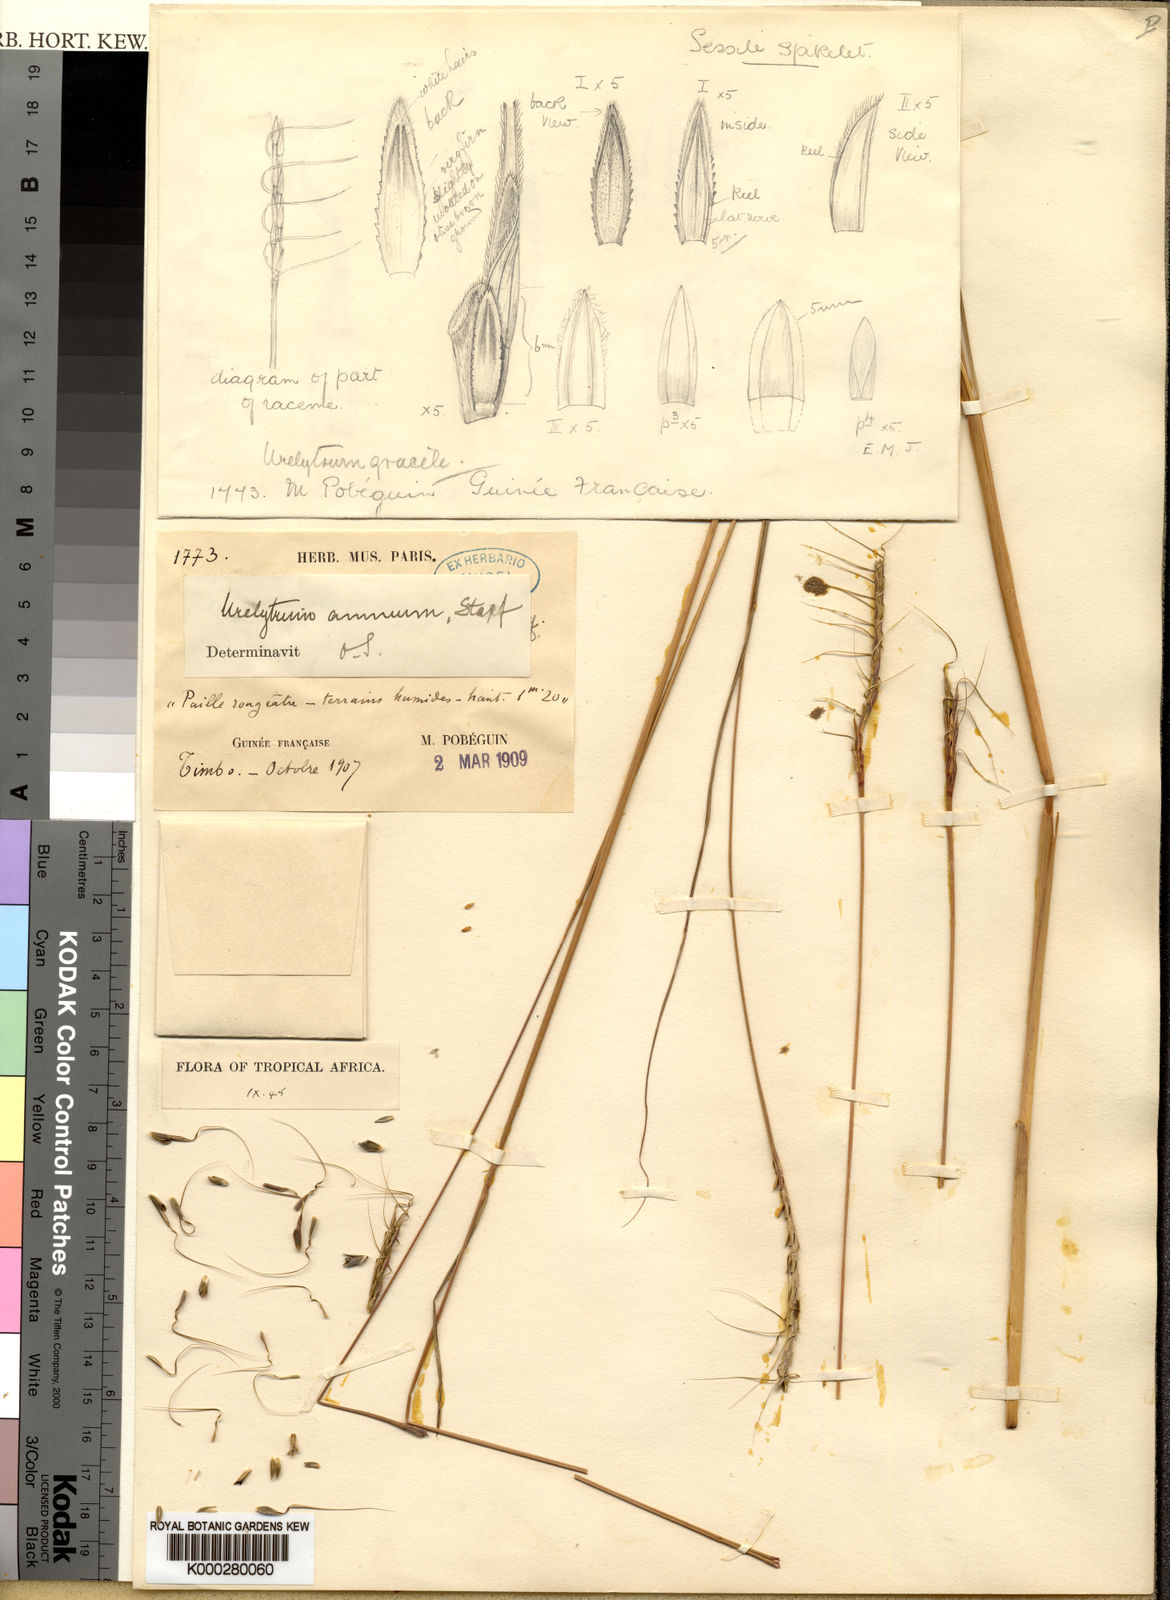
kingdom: Plantae
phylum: Tracheophyta
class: Liliopsida
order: Poales
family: Poaceae
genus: Urelytrum
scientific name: Urelytrum annuum
